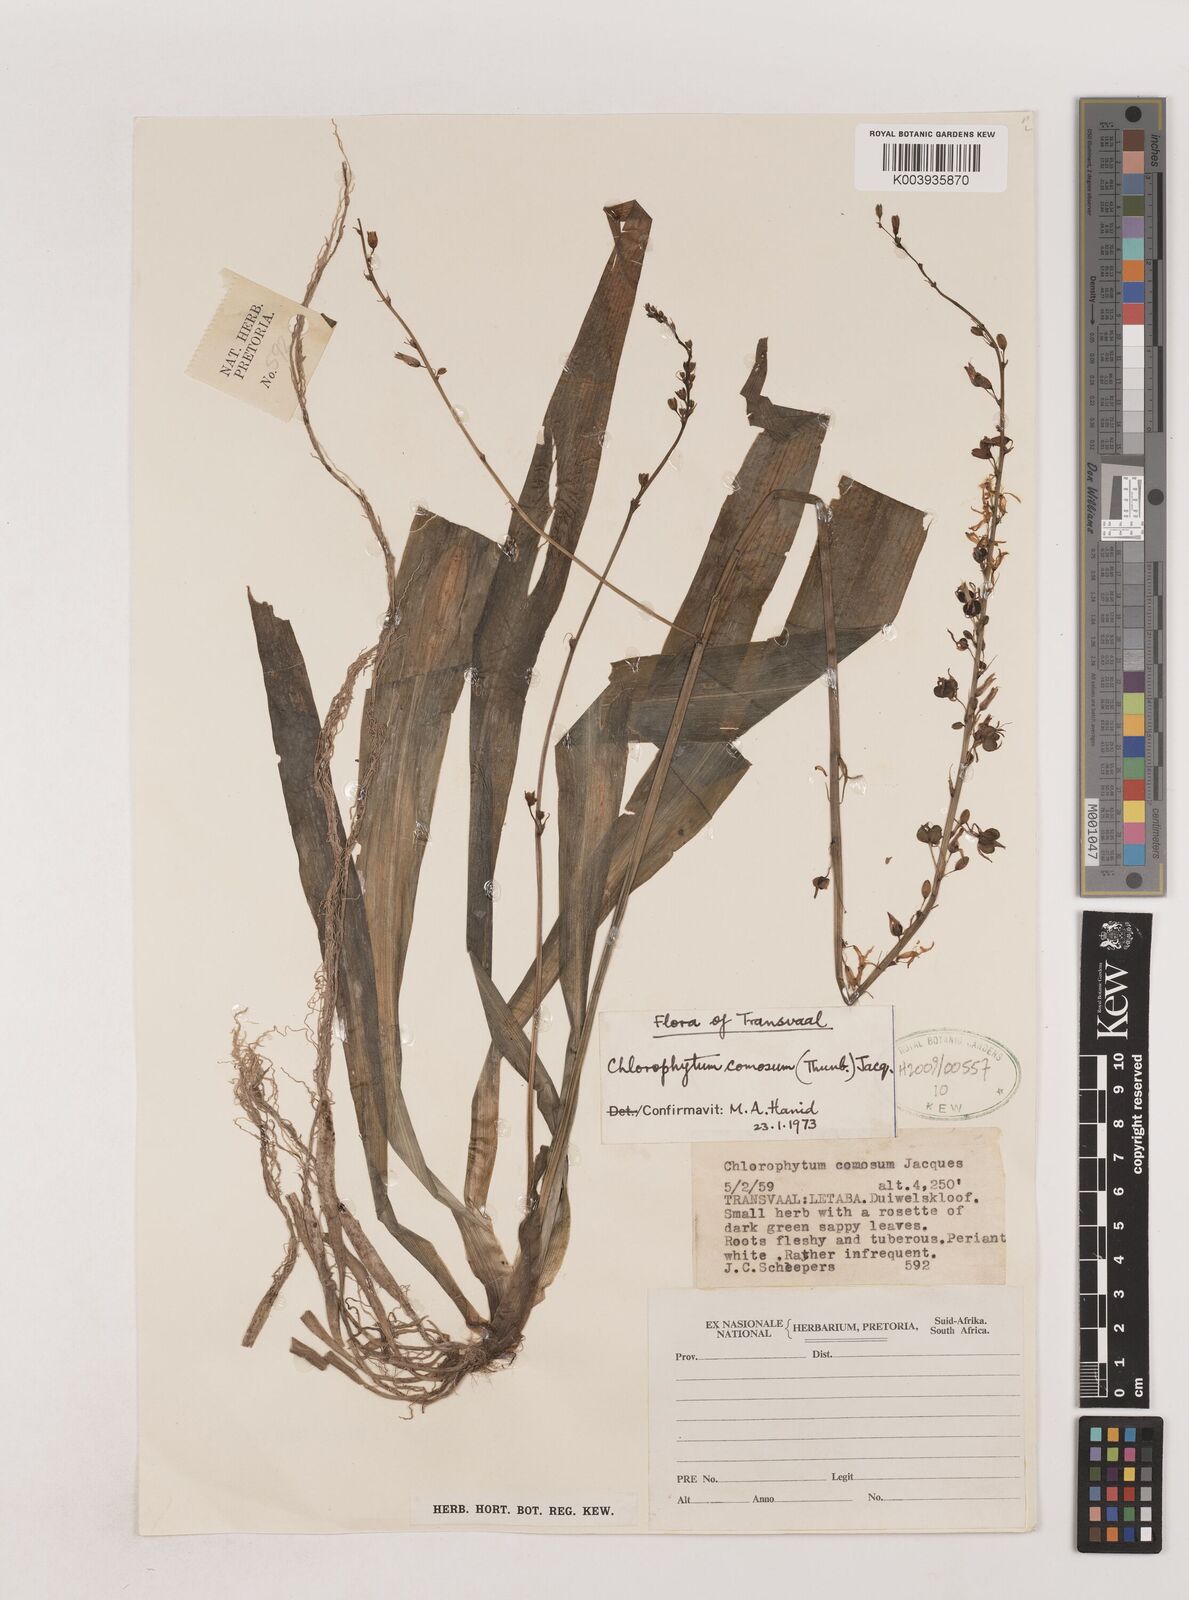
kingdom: Plantae
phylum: Tracheophyta
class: Liliopsida
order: Asparagales
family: Asparagaceae
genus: Chlorophytum
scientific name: Chlorophytum comosum
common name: Spider plant
